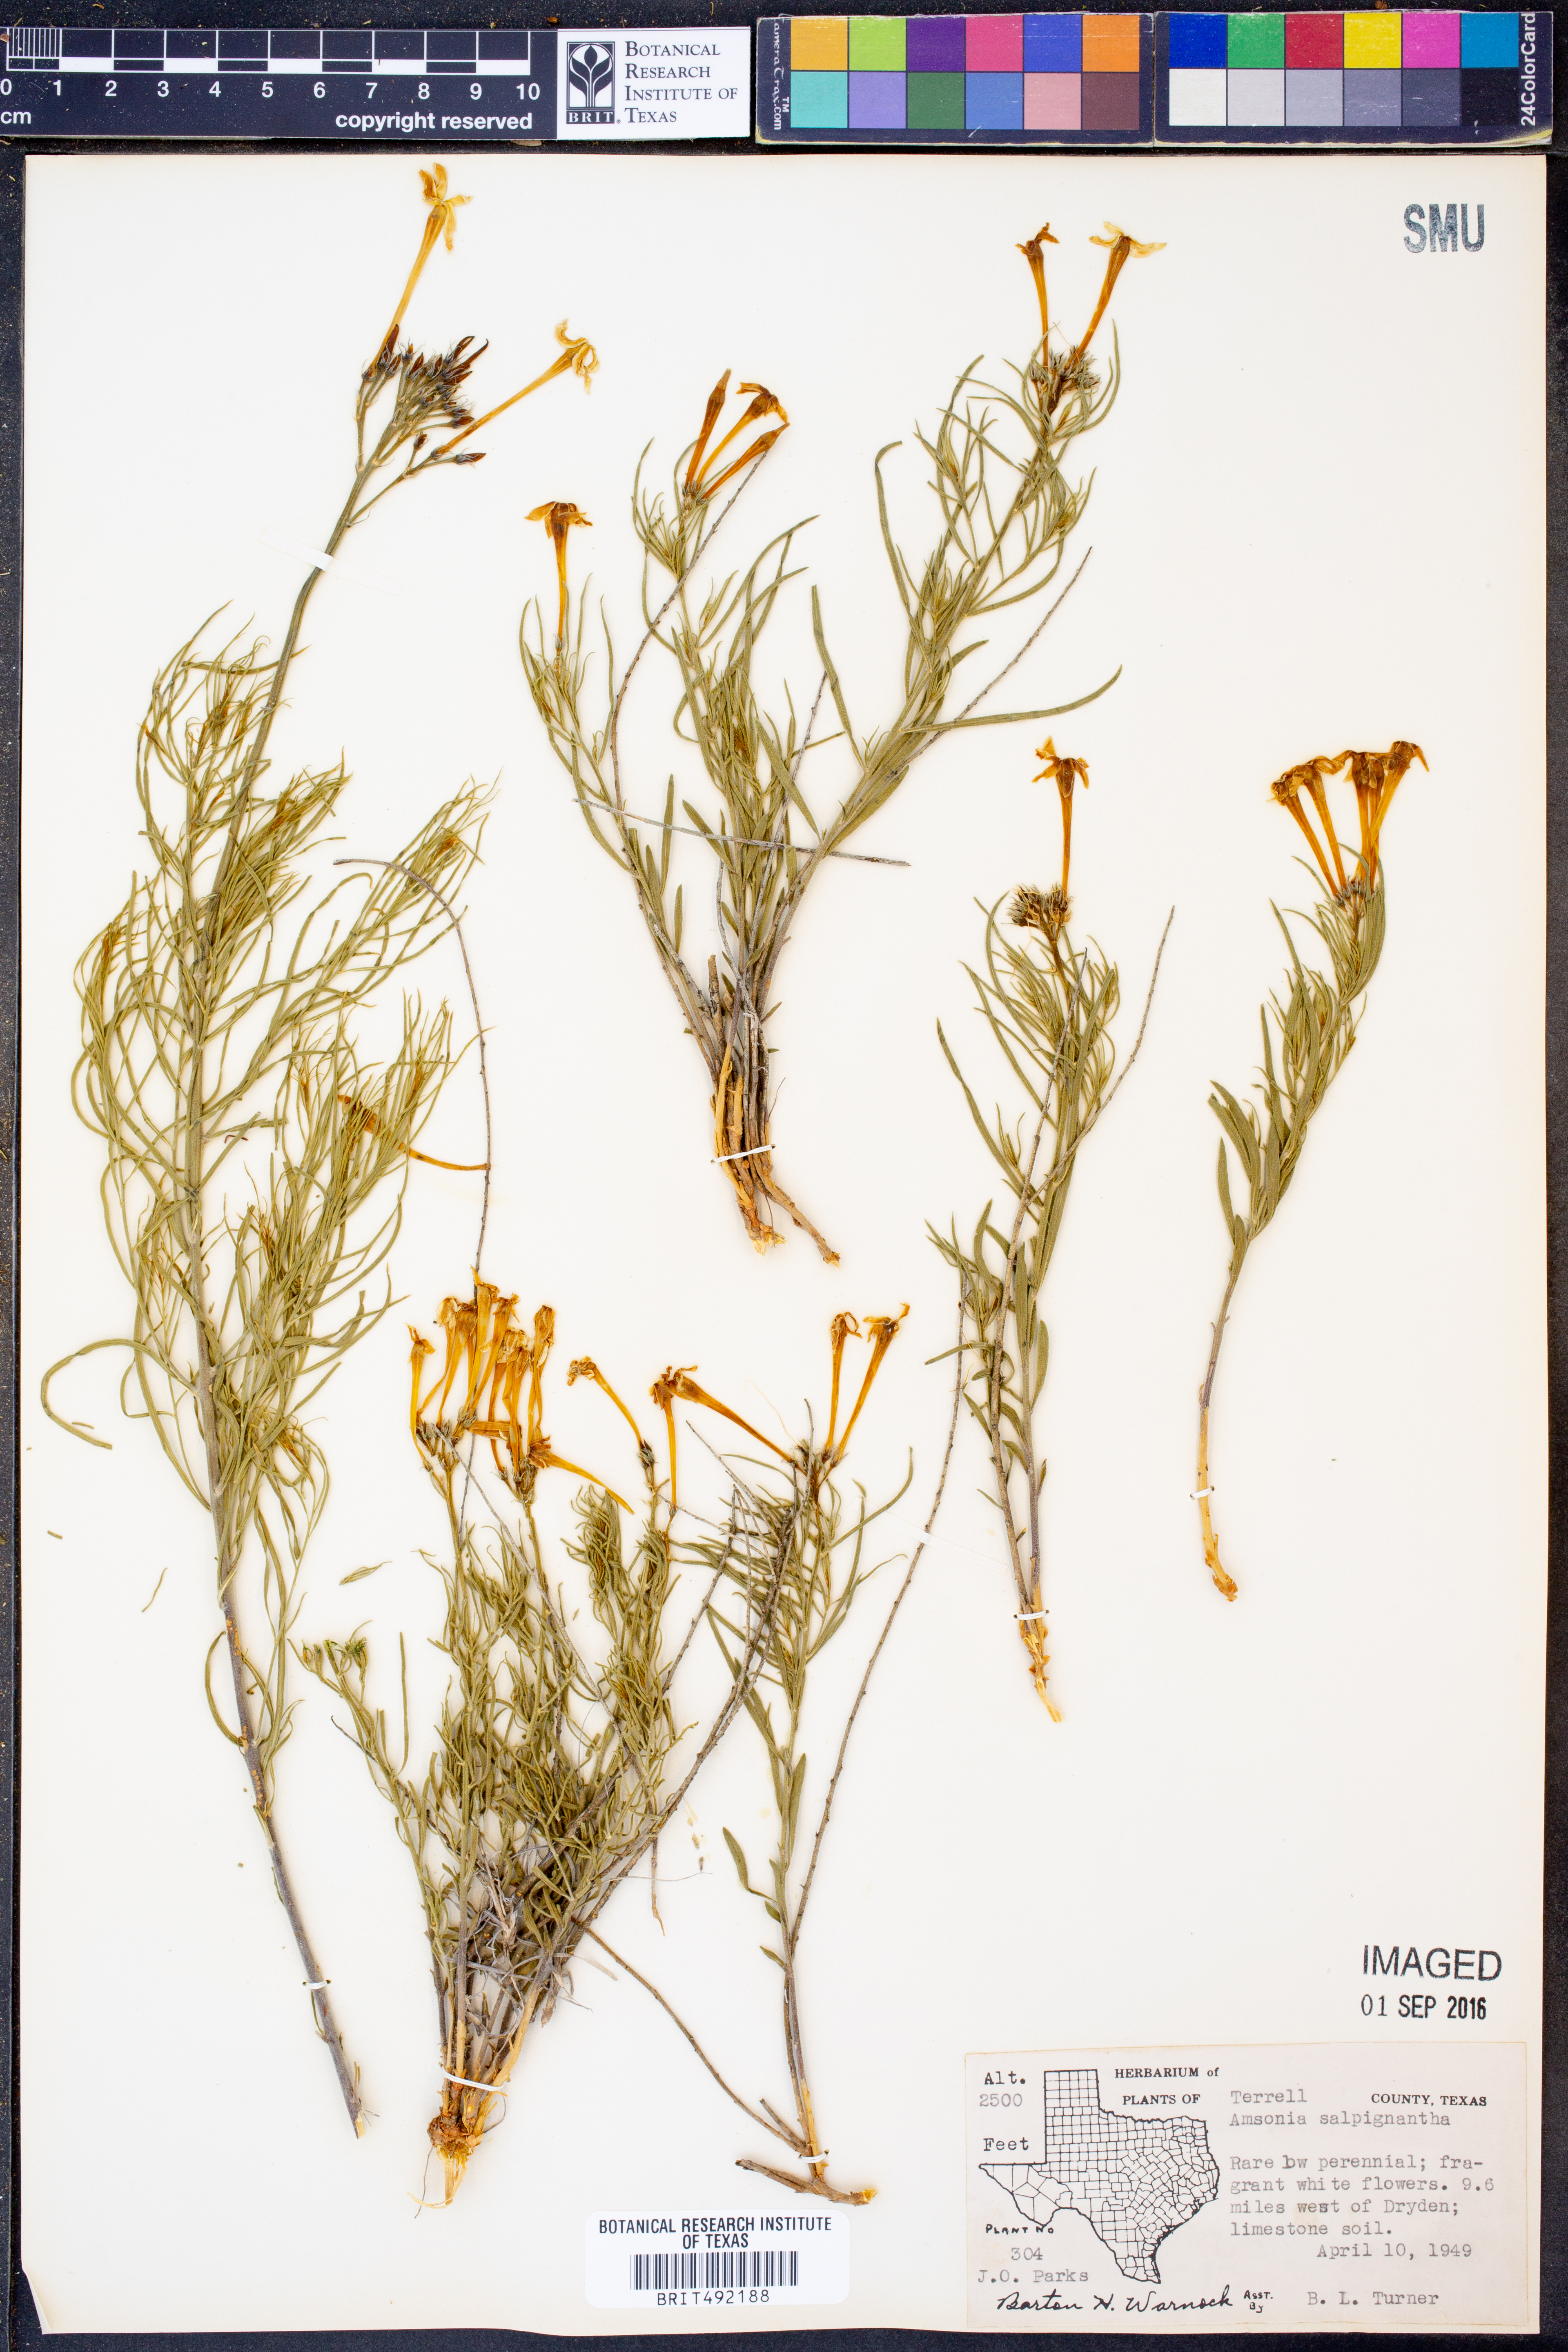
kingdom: Plantae
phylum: Tracheophyta
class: Magnoliopsida
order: Gentianales
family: Apocynaceae
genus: Amsonia
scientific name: Amsonia longiflora
